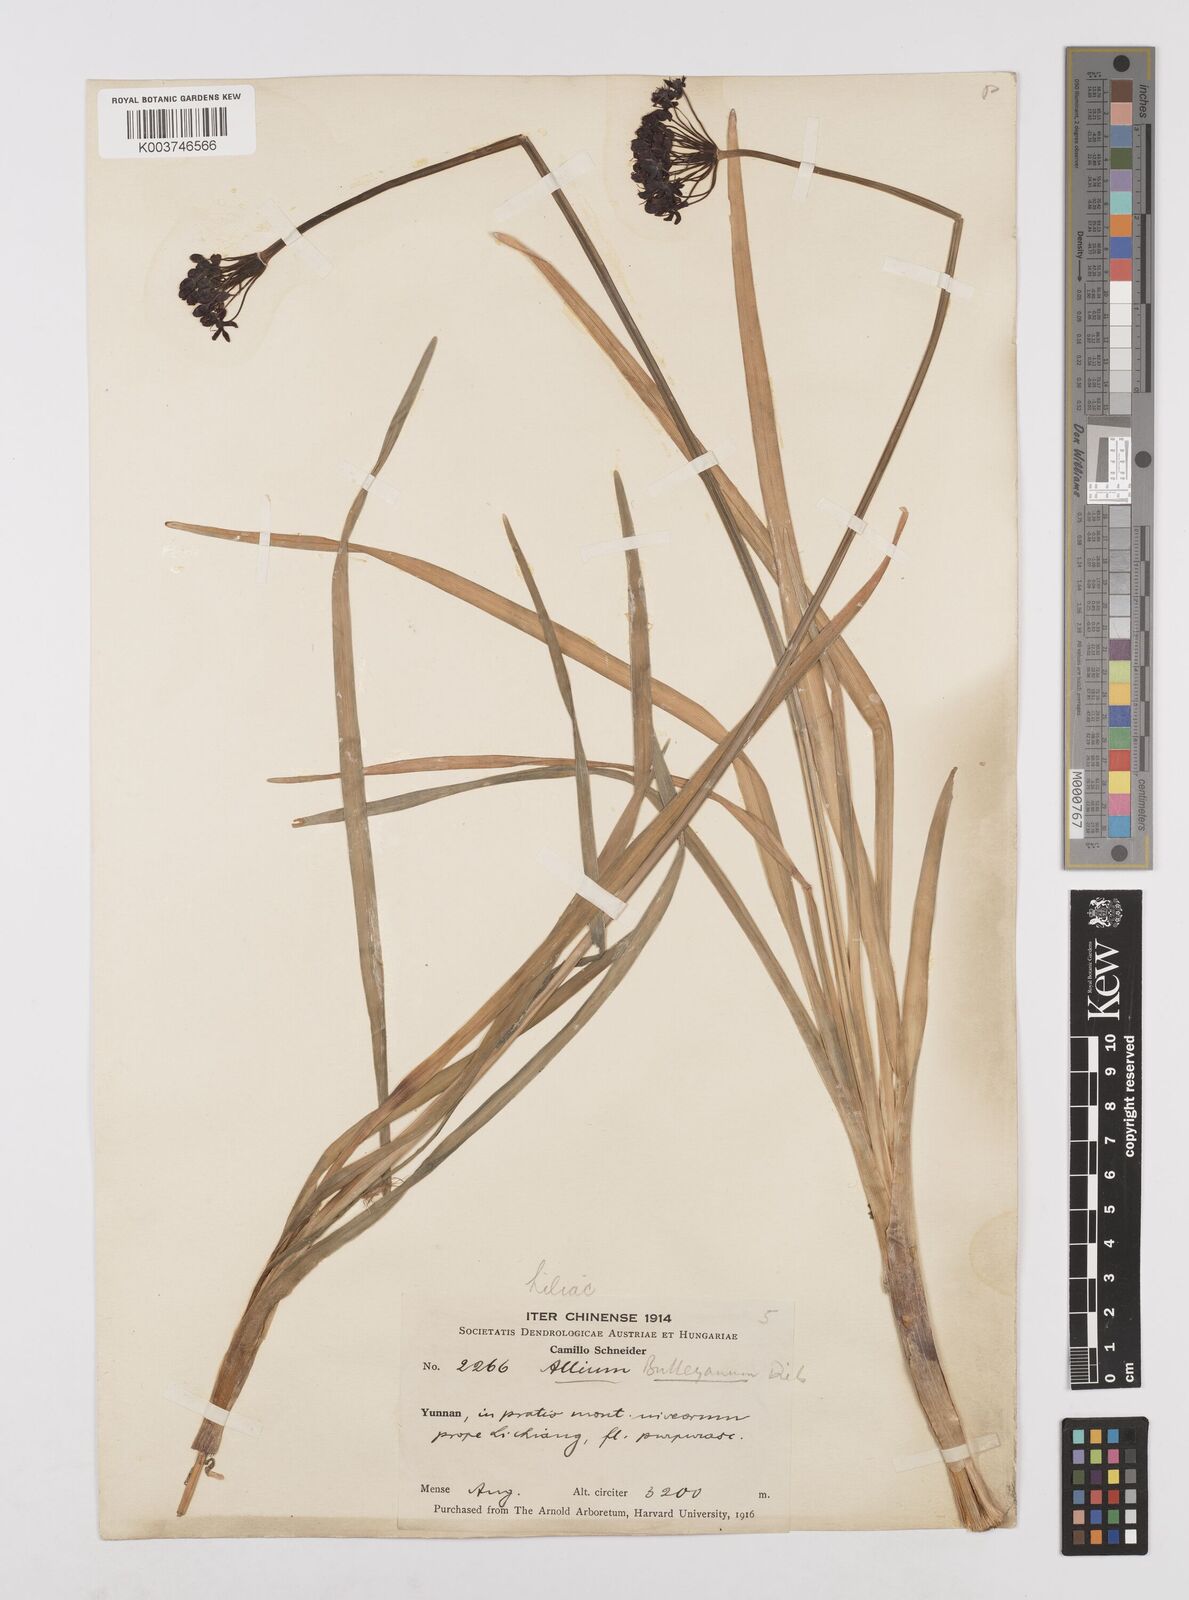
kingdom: Plantae
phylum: Tracheophyta
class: Liliopsida
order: Asparagales
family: Amaryllidaceae
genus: Allium
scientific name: Allium wallichii
